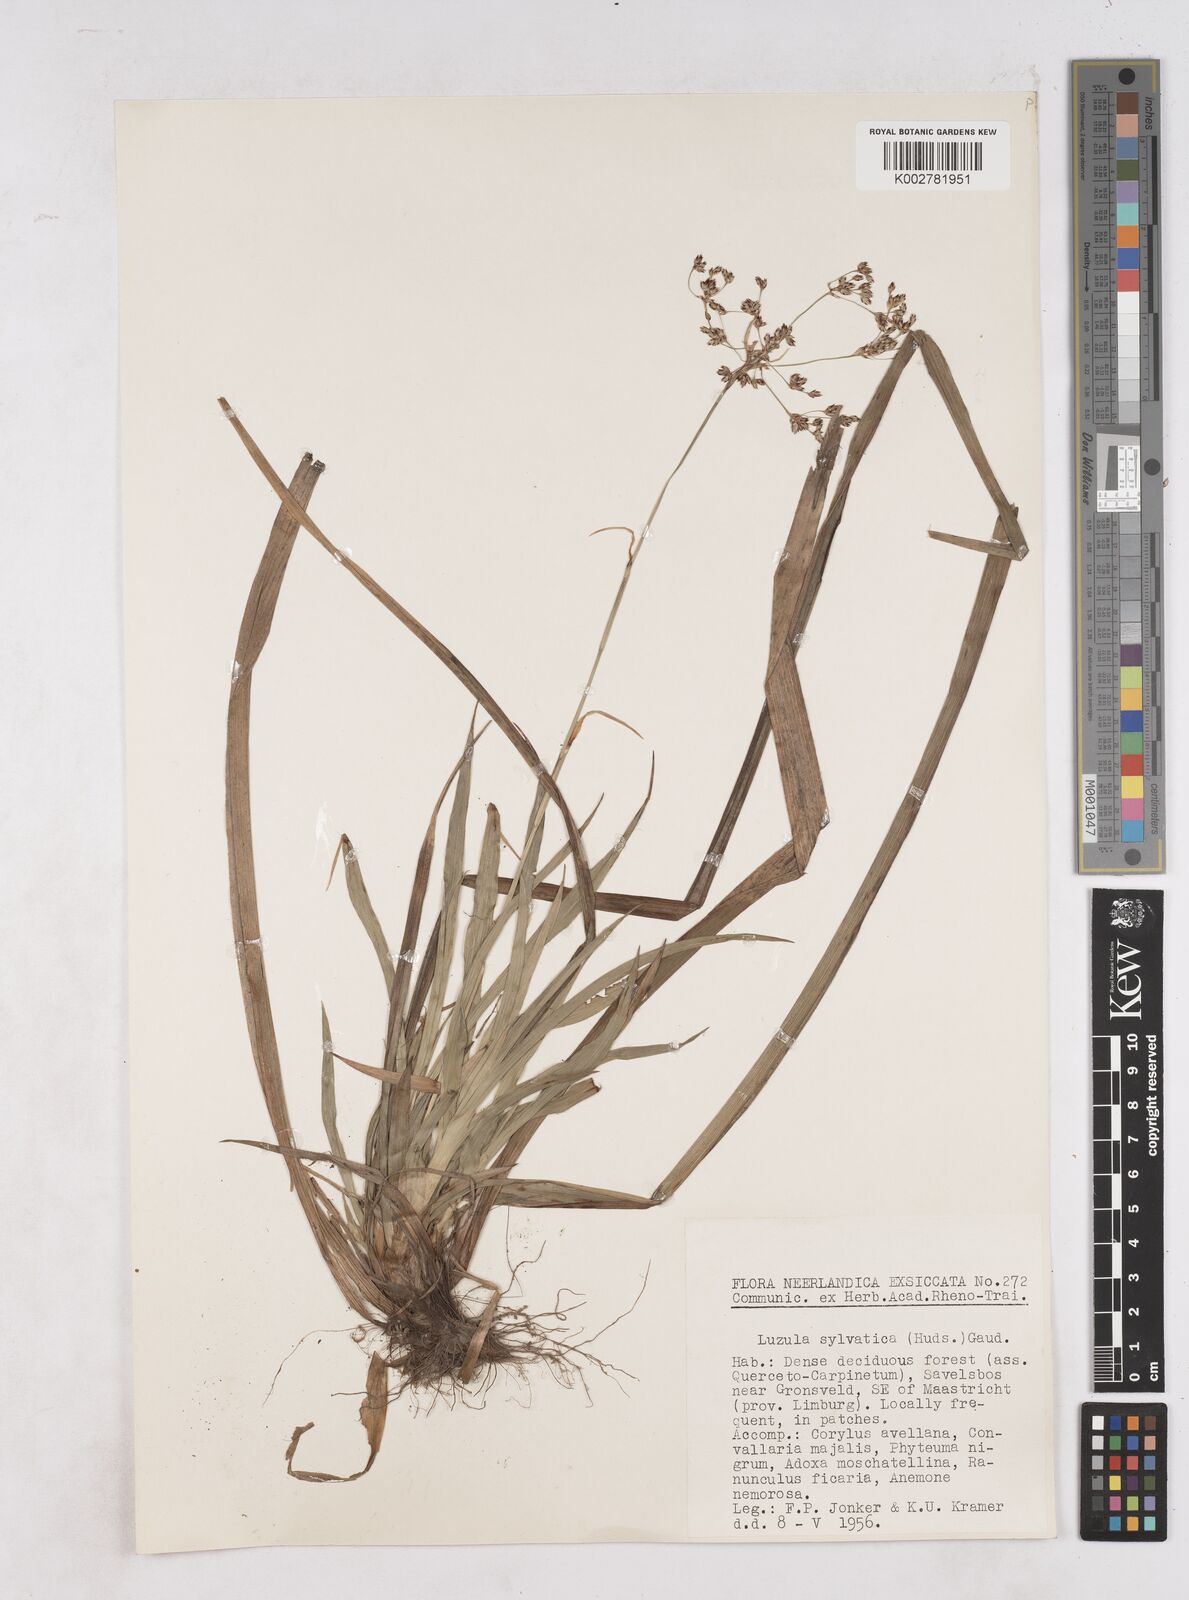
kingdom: Plantae
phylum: Tracheophyta
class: Liliopsida
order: Poales
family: Juncaceae
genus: Luzula
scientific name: Luzula sylvatica
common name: Great wood-rush
